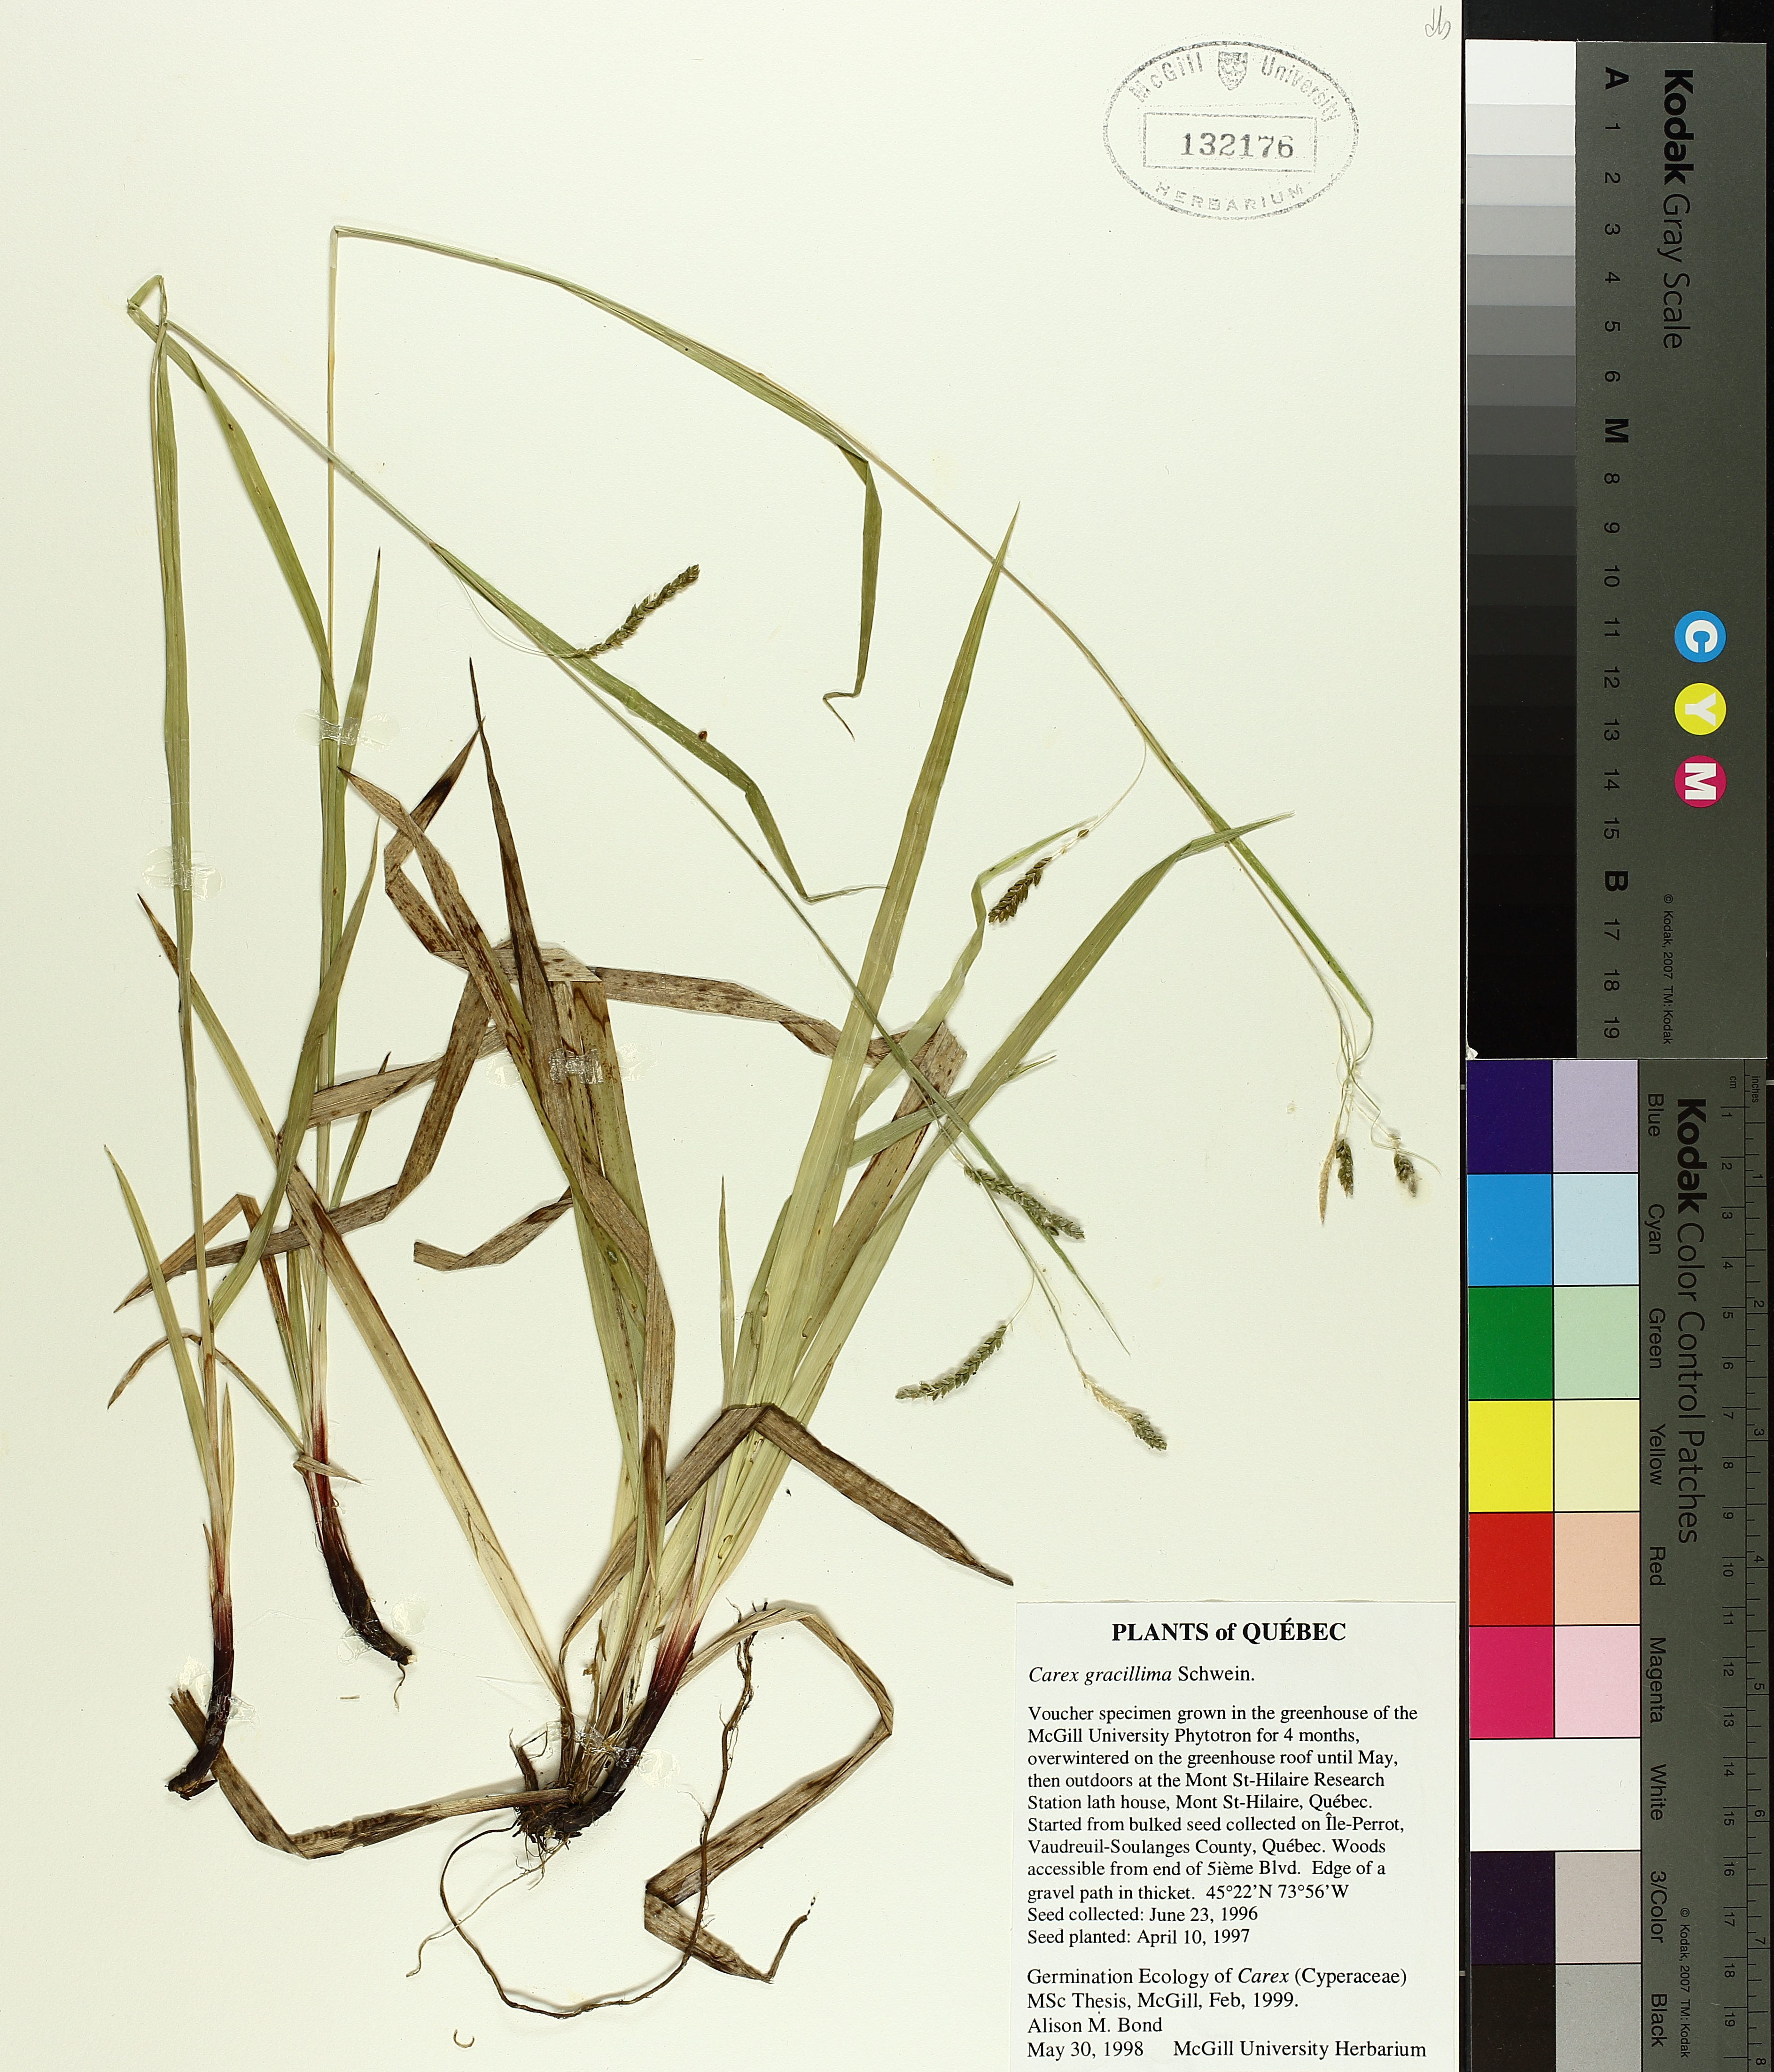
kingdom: Plantae
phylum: Tracheophyta
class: Liliopsida
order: Poales
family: Cyperaceae
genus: Carex
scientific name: Carex gracillima
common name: Graceful sedge
